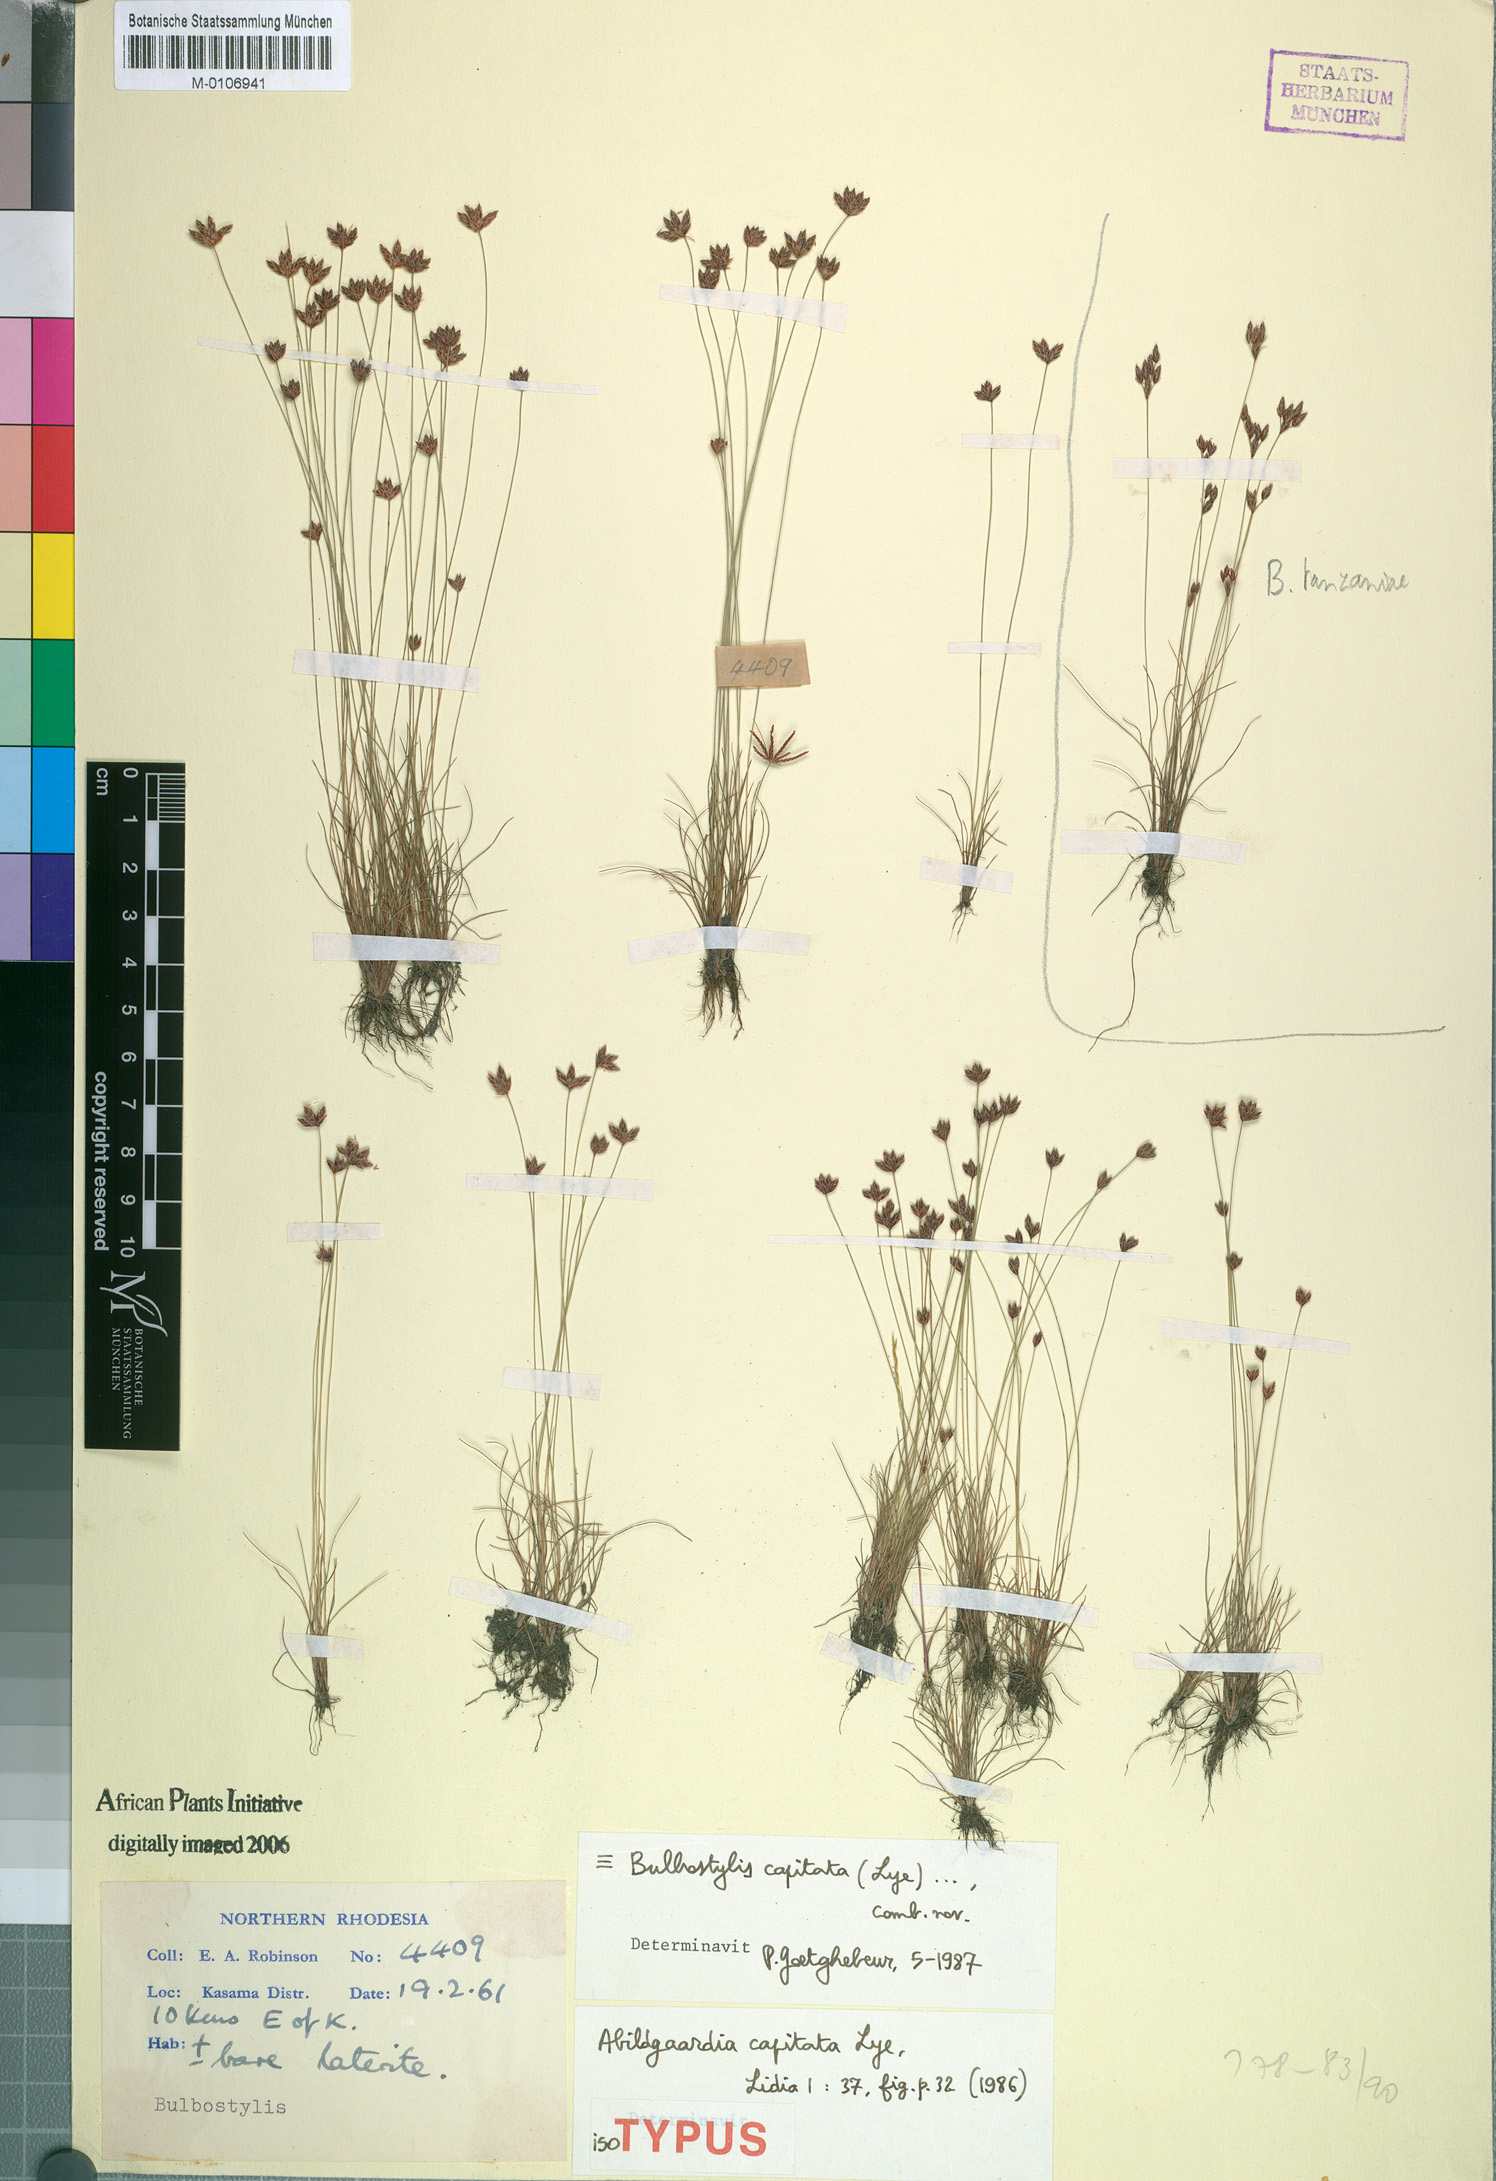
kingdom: Plantae
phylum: Tracheophyta
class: Liliopsida
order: Poales
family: Cyperaceae
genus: Bulbostylis
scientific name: Bulbostylis capitata
